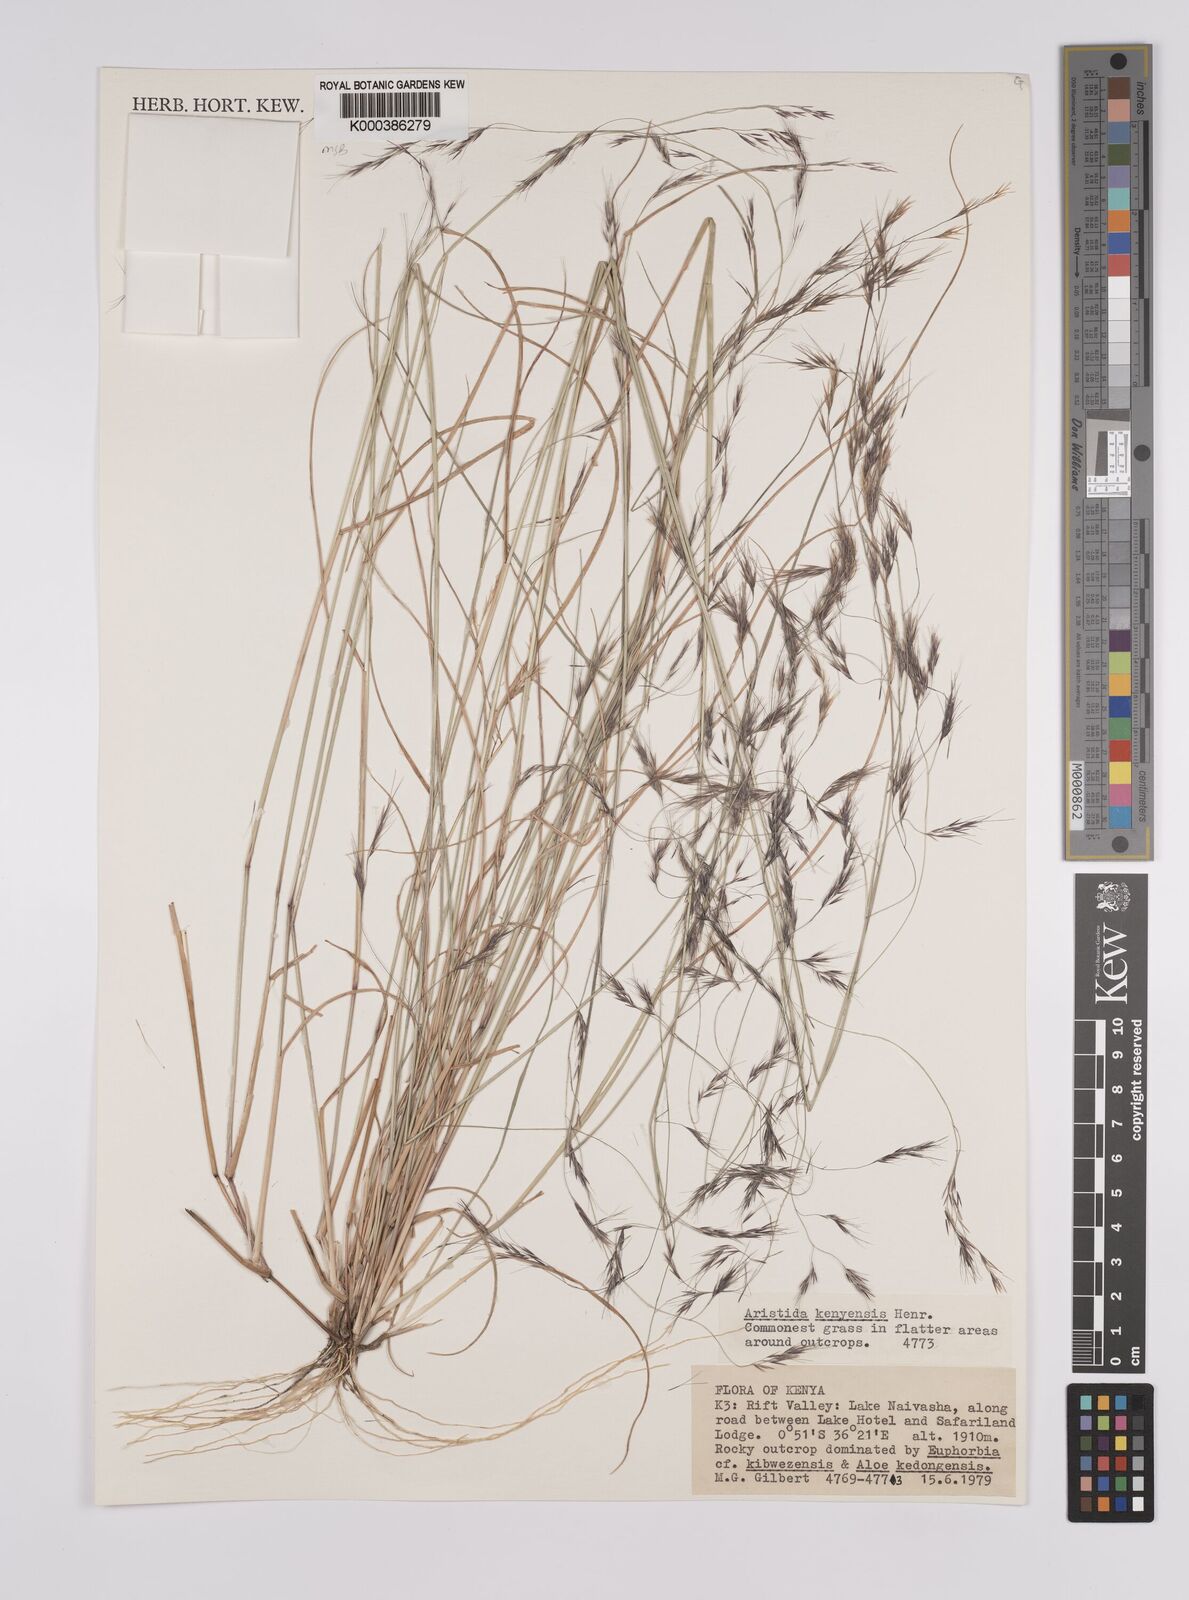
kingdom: Plantae
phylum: Tracheophyta
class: Liliopsida
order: Poales
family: Poaceae
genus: Aristida
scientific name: Aristida kenyensis
